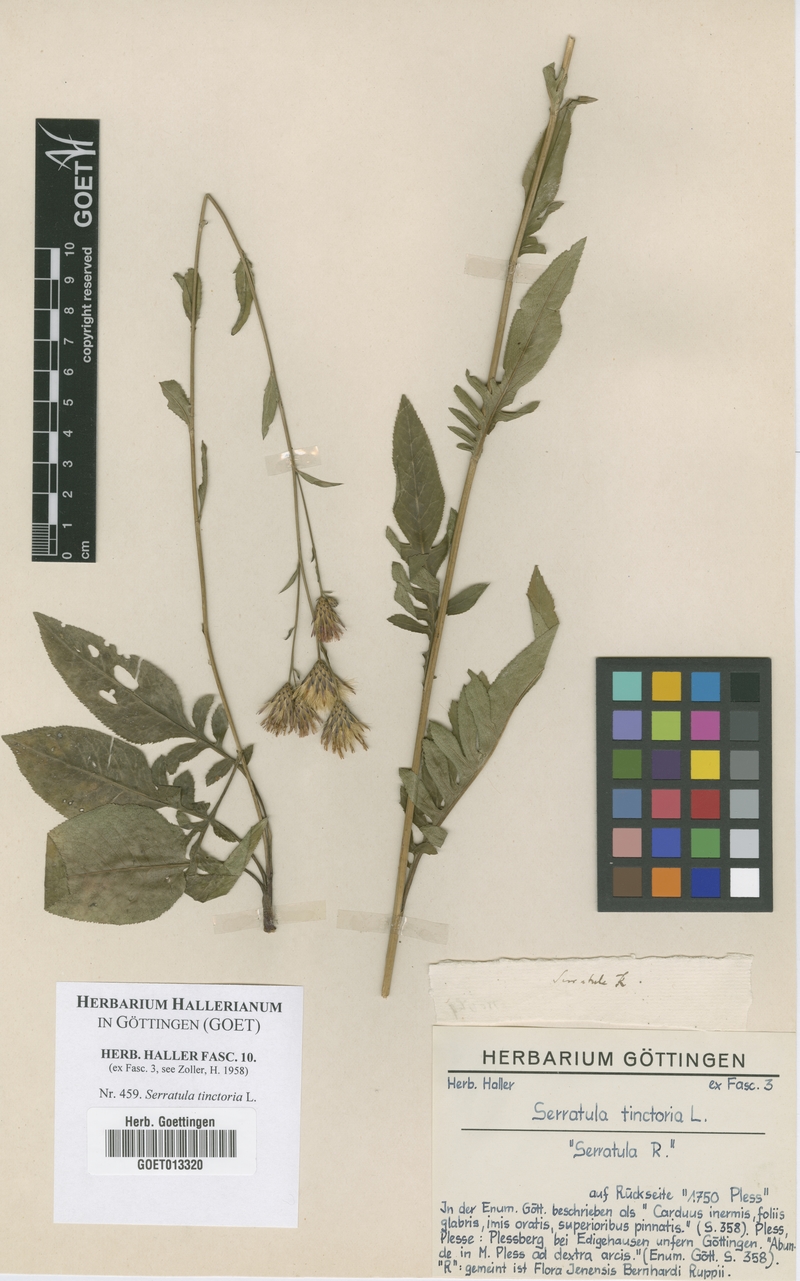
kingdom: Plantae
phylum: Tracheophyta
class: Magnoliopsida
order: Asterales
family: Asteraceae
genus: Serratula
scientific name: Serratula tinctoria
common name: Saw-wort
